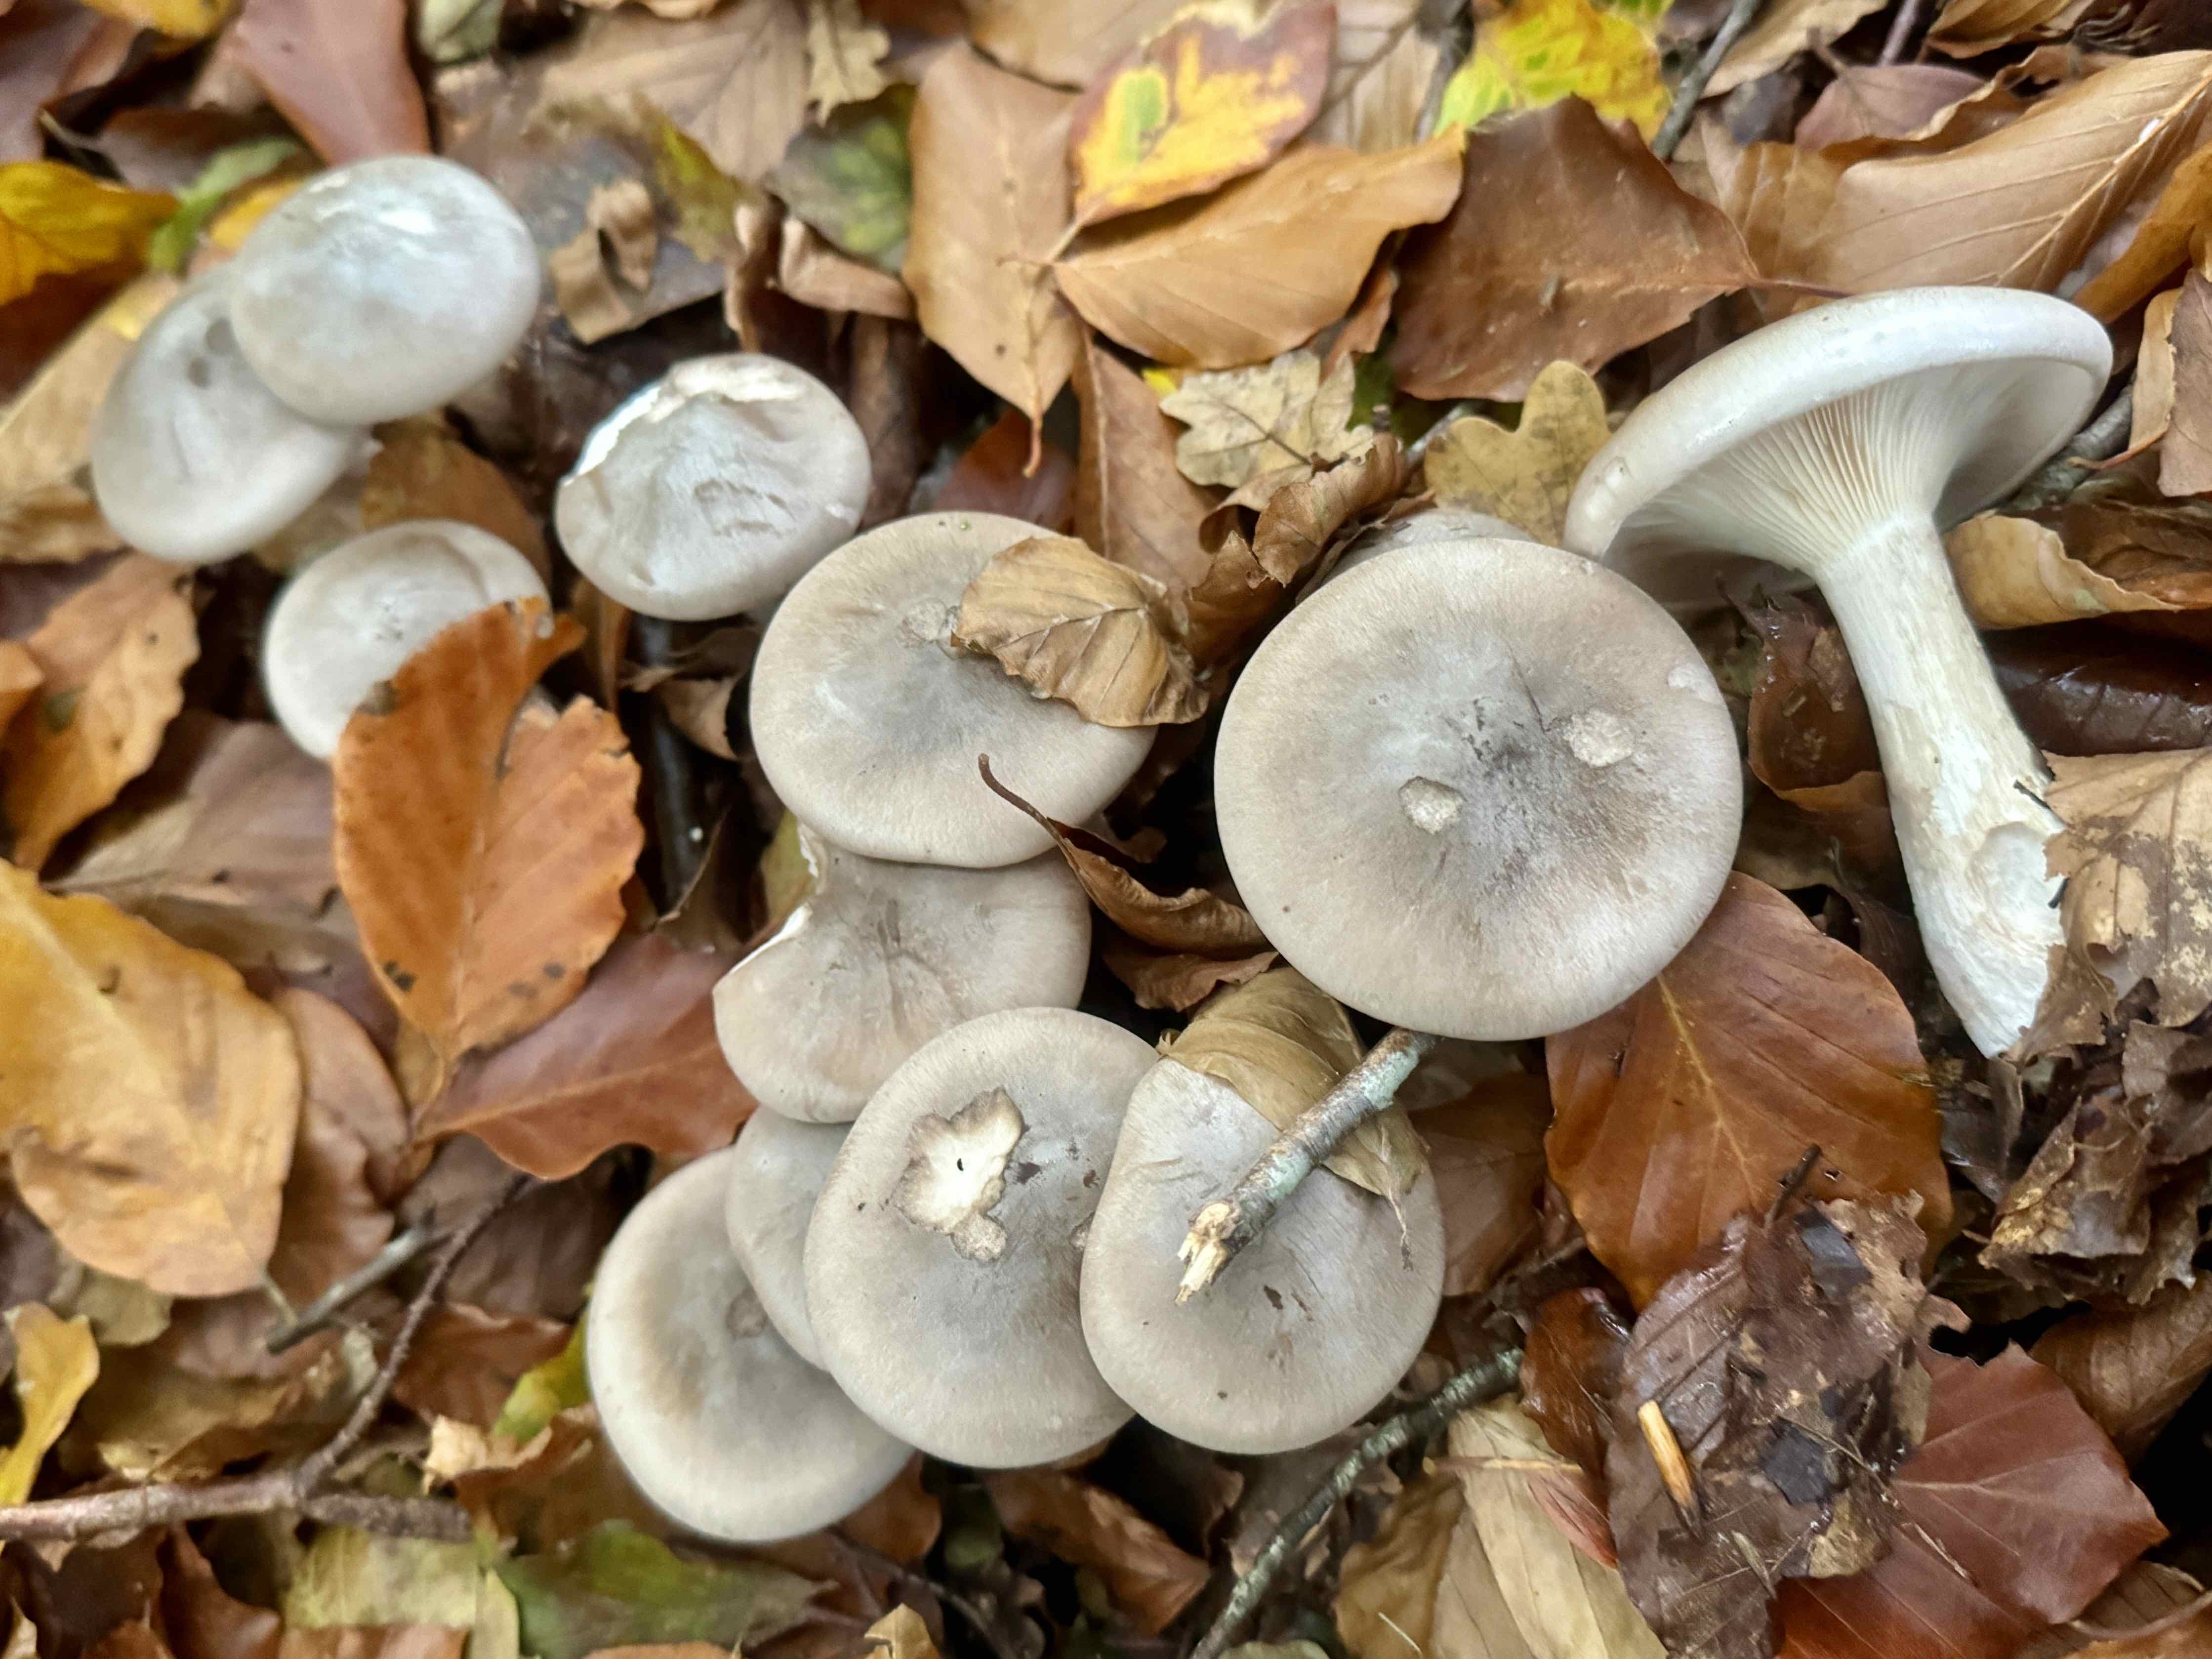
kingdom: Fungi
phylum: Basidiomycota
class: Agaricomycetes
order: Agaricales
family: Tricholomataceae
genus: Clitocybe
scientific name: Clitocybe nebularis
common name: tåge-tragthat
